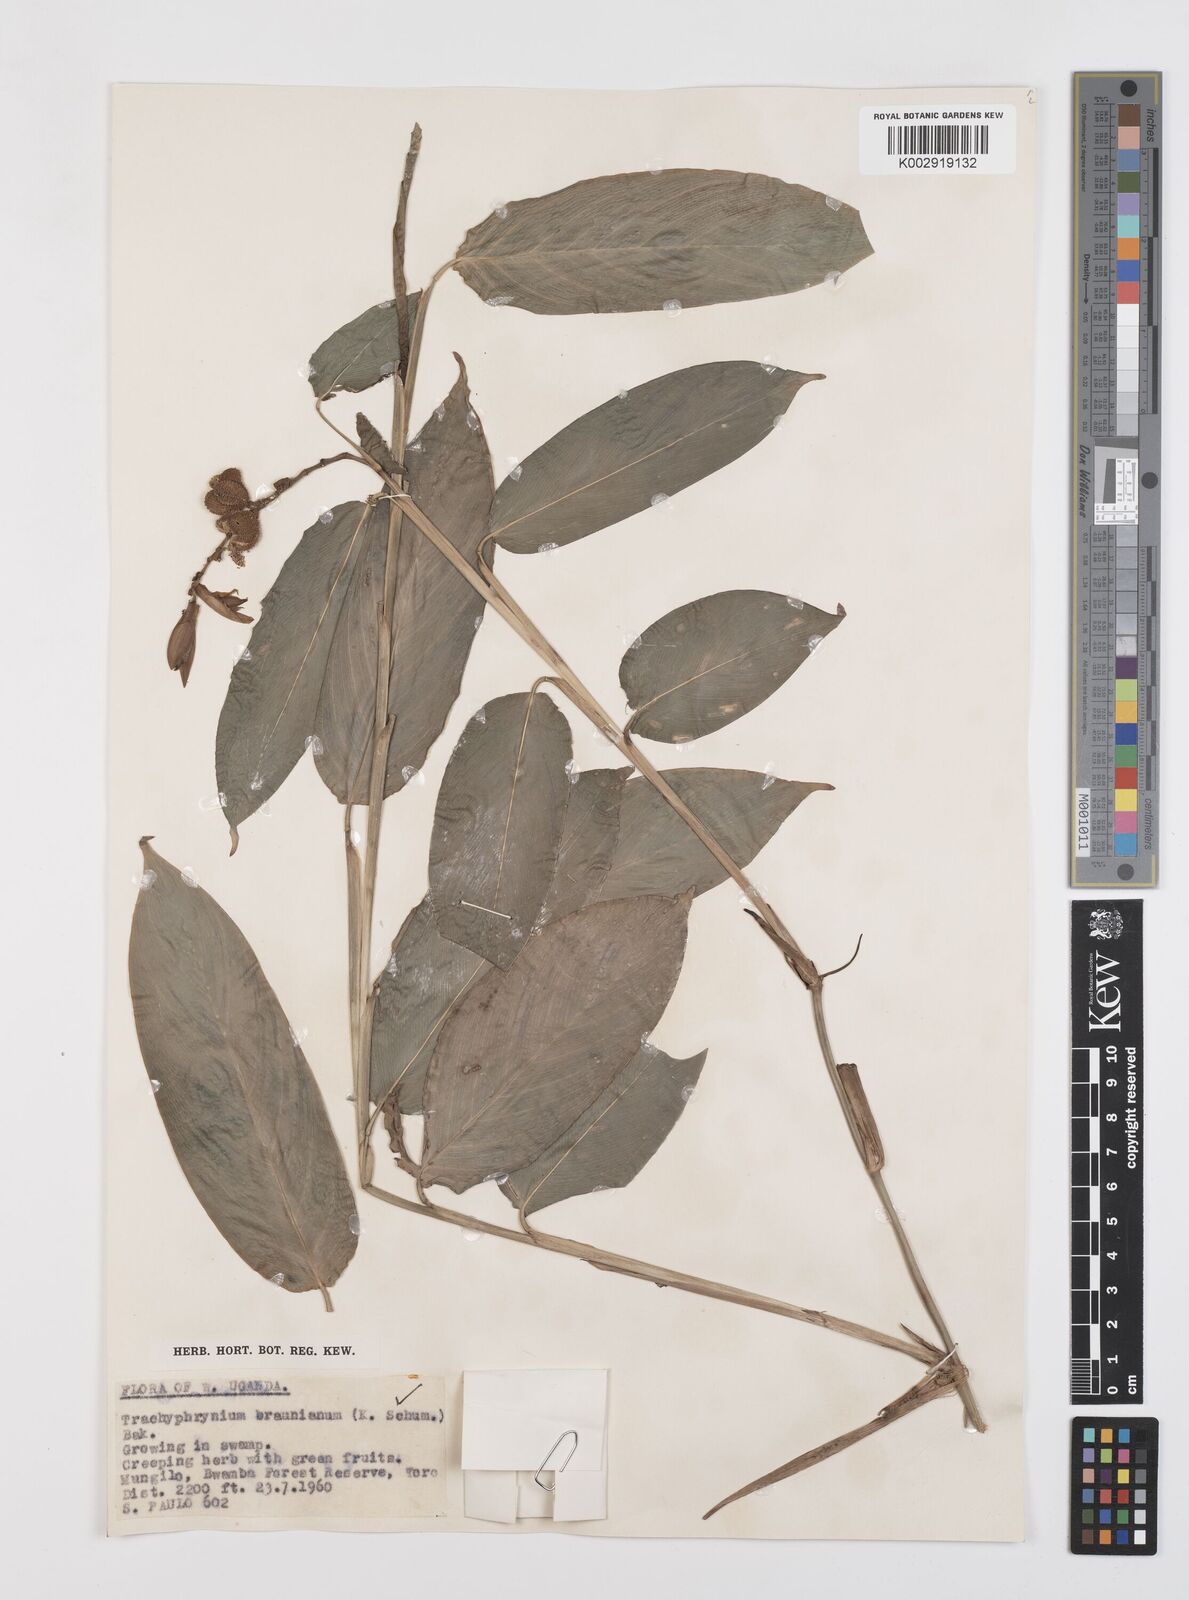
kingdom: Plantae
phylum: Tracheophyta
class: Liliopsida
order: Zingiberales
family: Marantaceae
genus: Trachyphrynium
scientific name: Trachyphrynium braunianum
